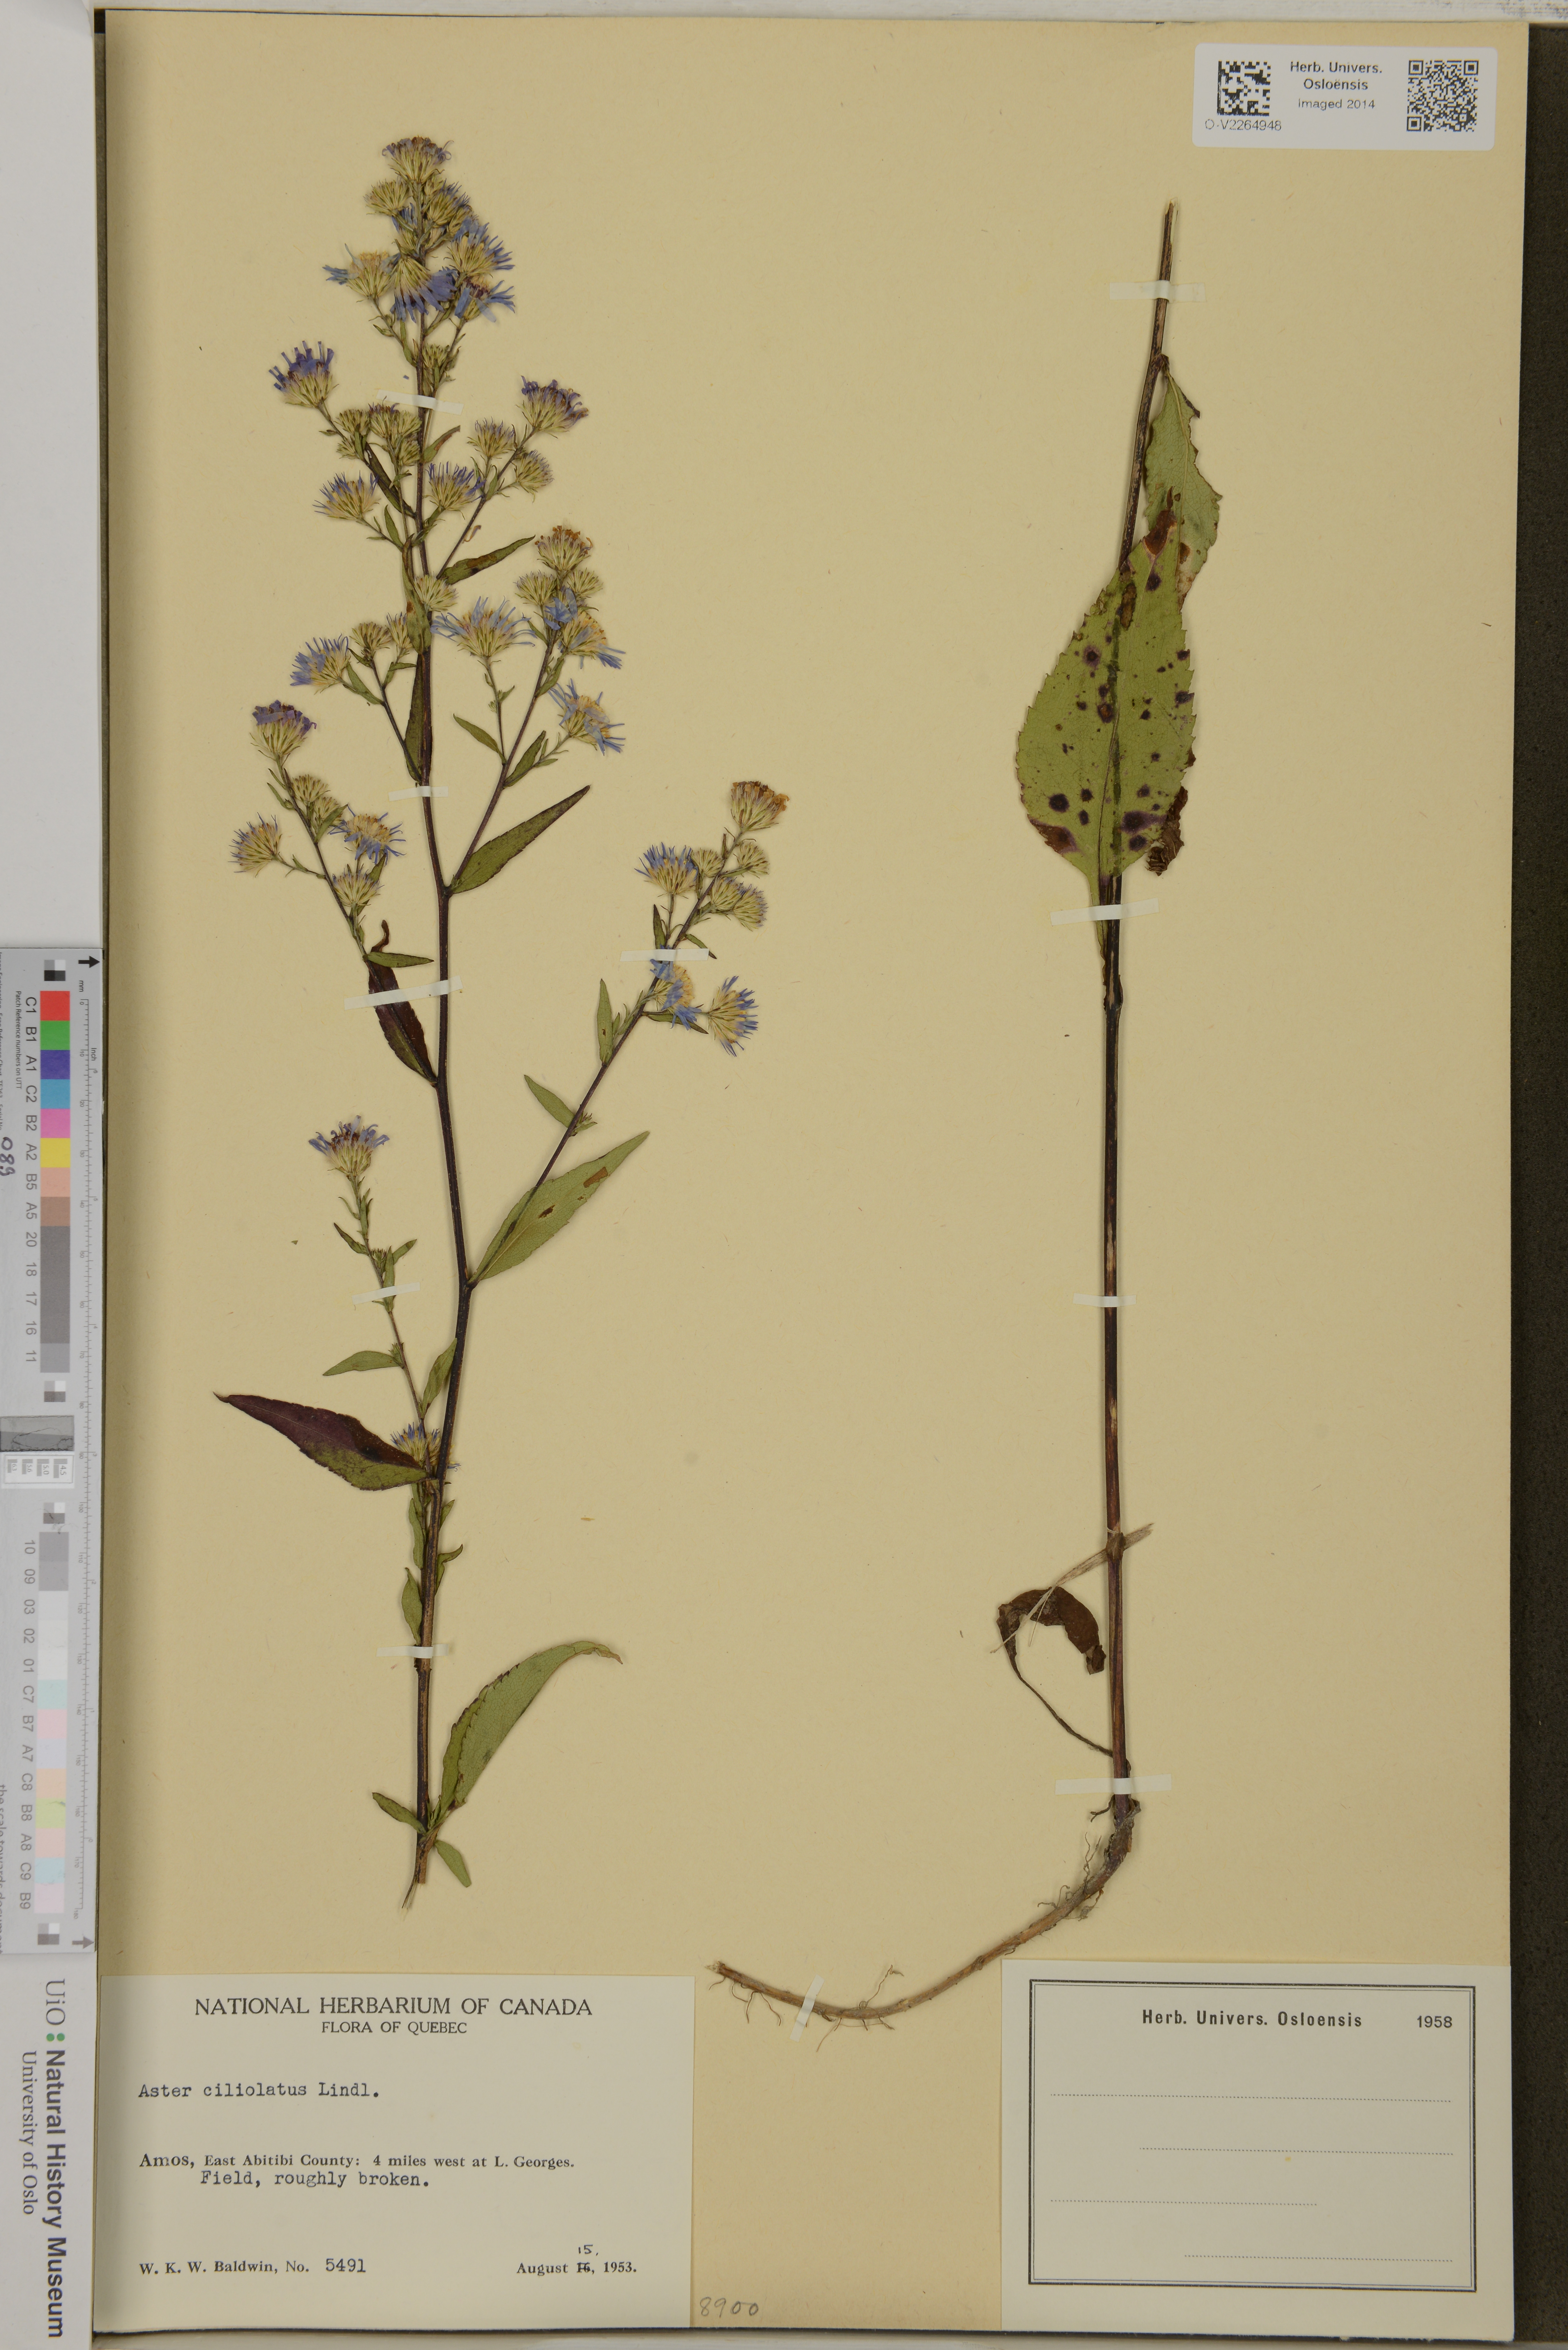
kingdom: Plantae
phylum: Tracheophyta
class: Magnoliopsida
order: Asterales
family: Asteraceae
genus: Symphyotrichum
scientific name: Symphyotrichum ciliolatum
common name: Fringed blue aster
